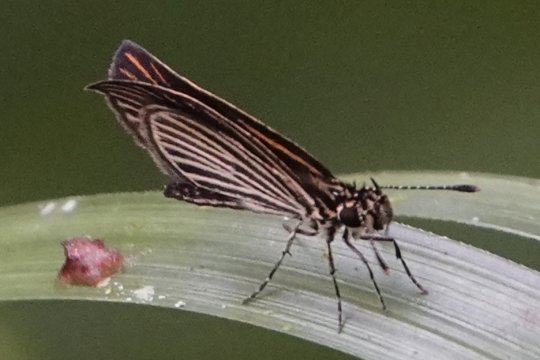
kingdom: Animalia
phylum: Arthropoda
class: Insecta
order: Lepidoptera
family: Hesperiidae
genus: Apaustus
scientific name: Apaustus gracilis
